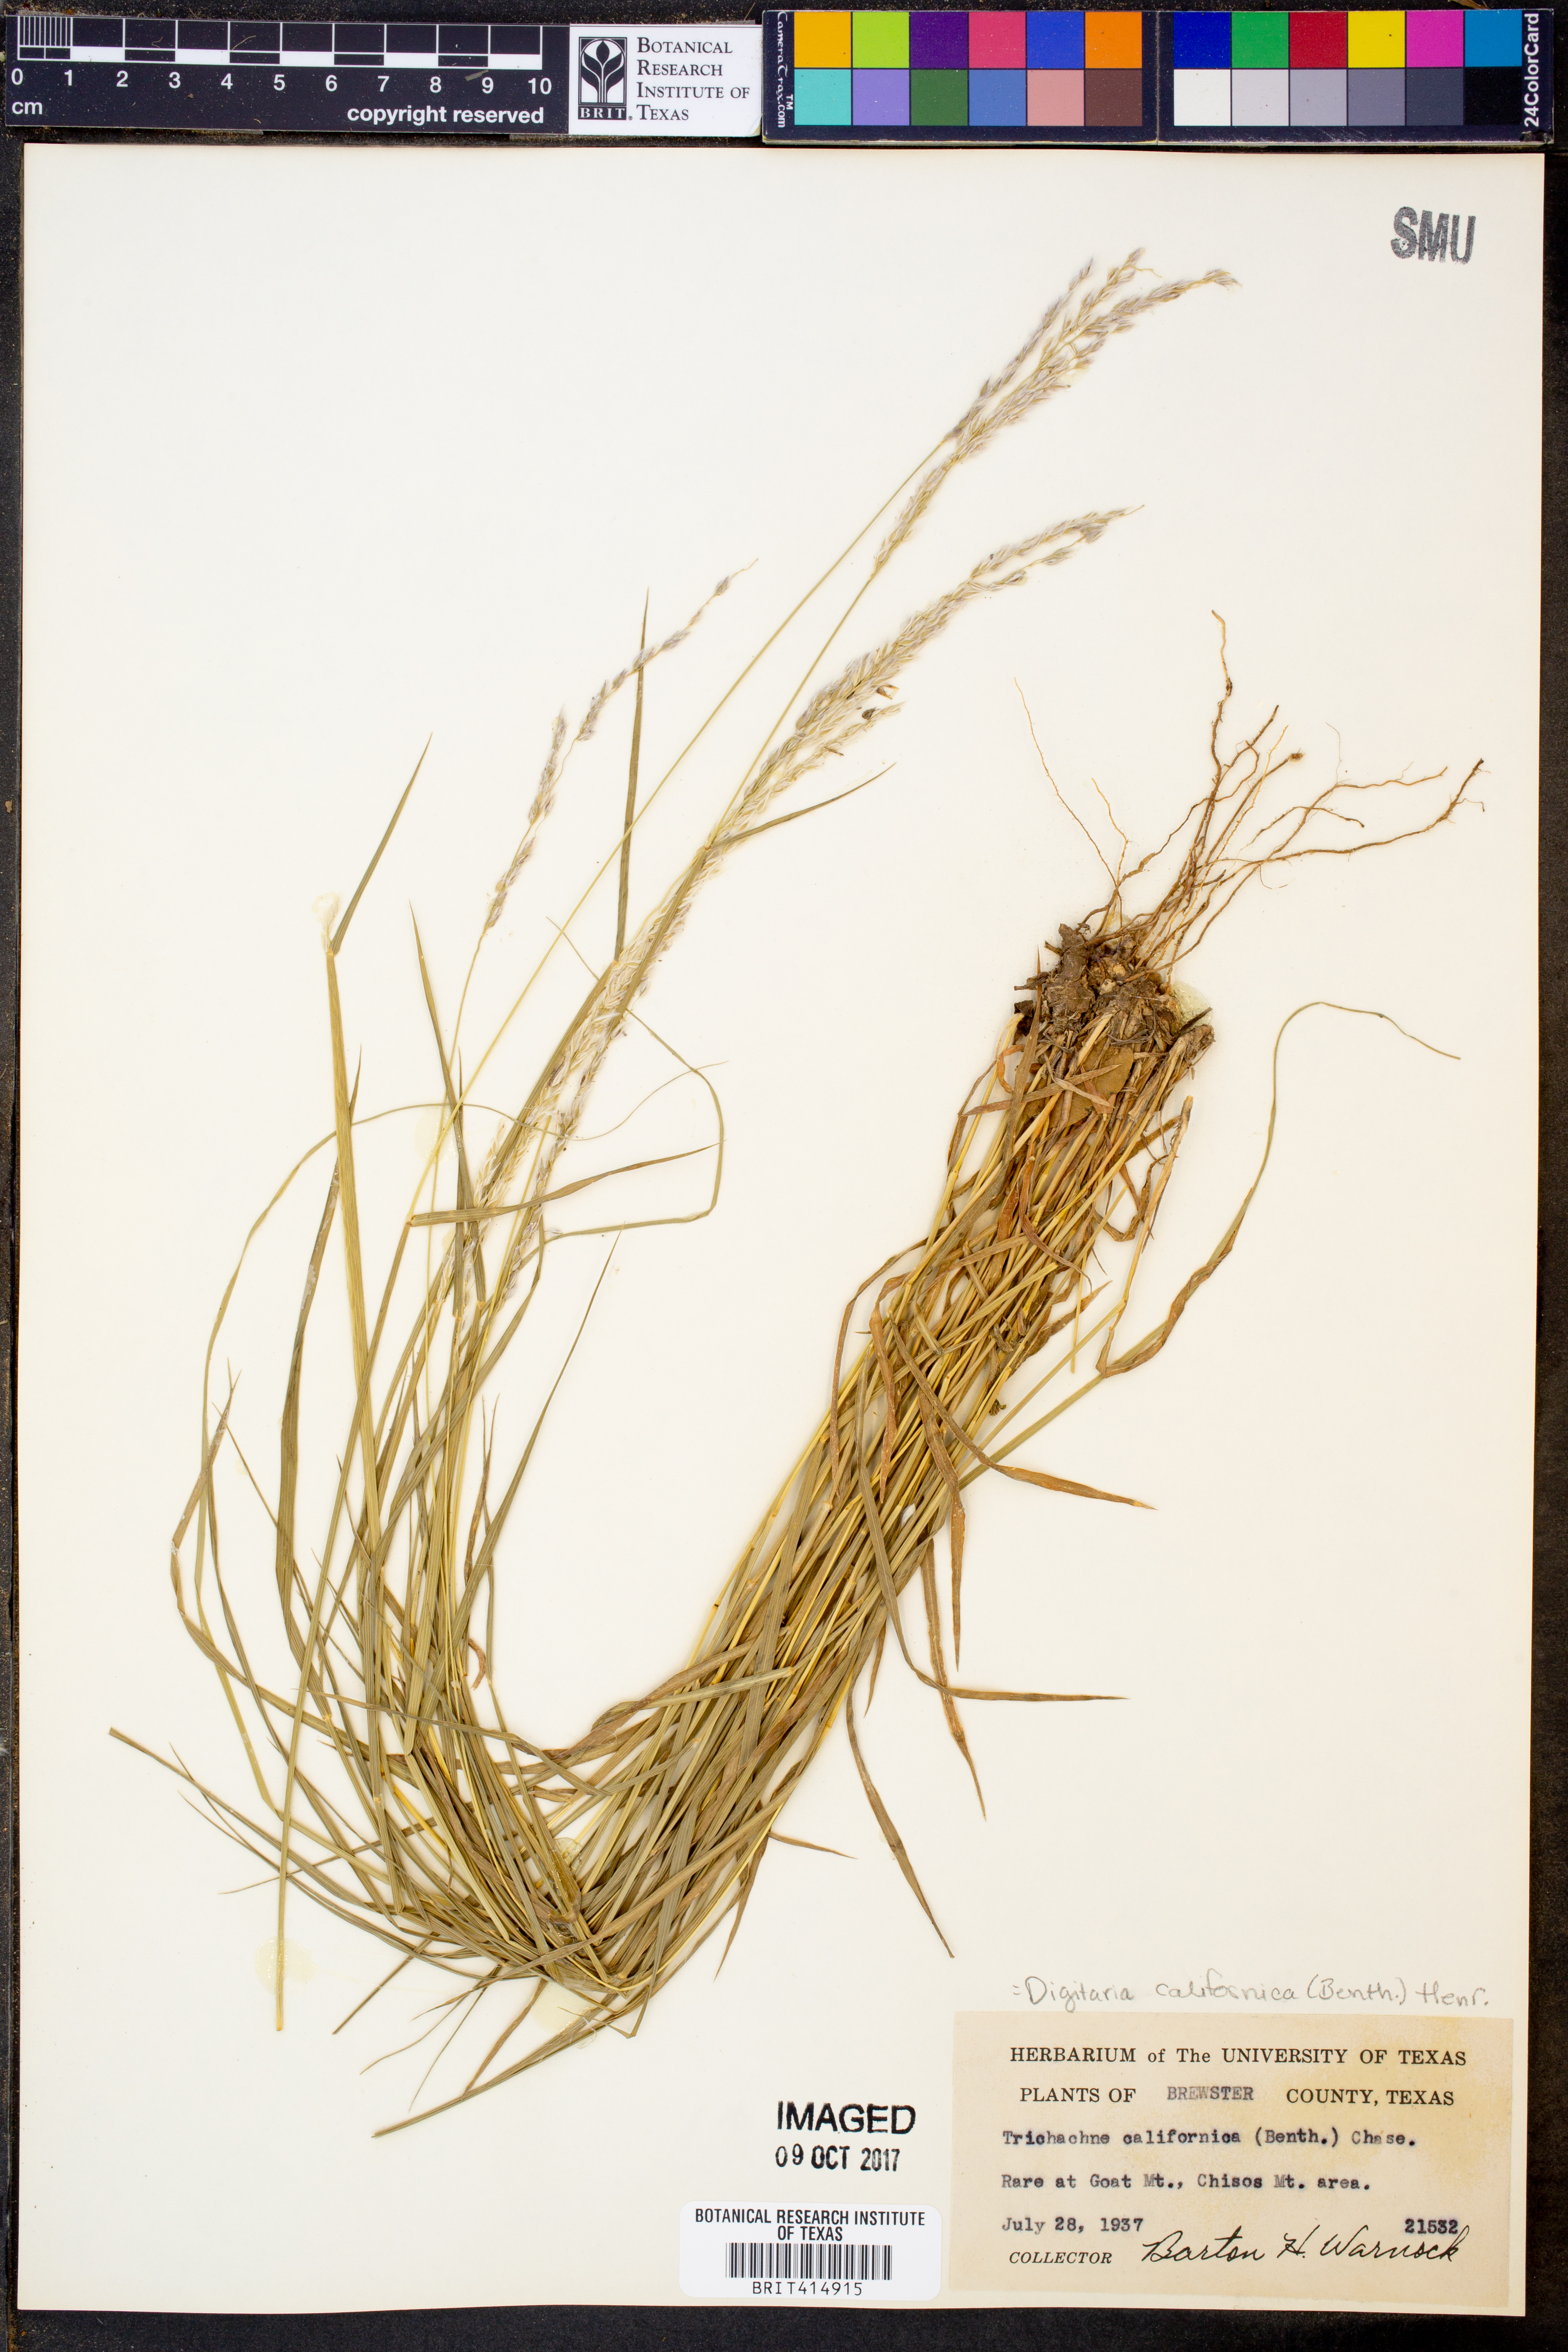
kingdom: Plantae
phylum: Tracheophyta
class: Liliopsida
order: Poales
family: Poaceae
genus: Digitaria
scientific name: Digitaria californica
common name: Arizona cottontop
